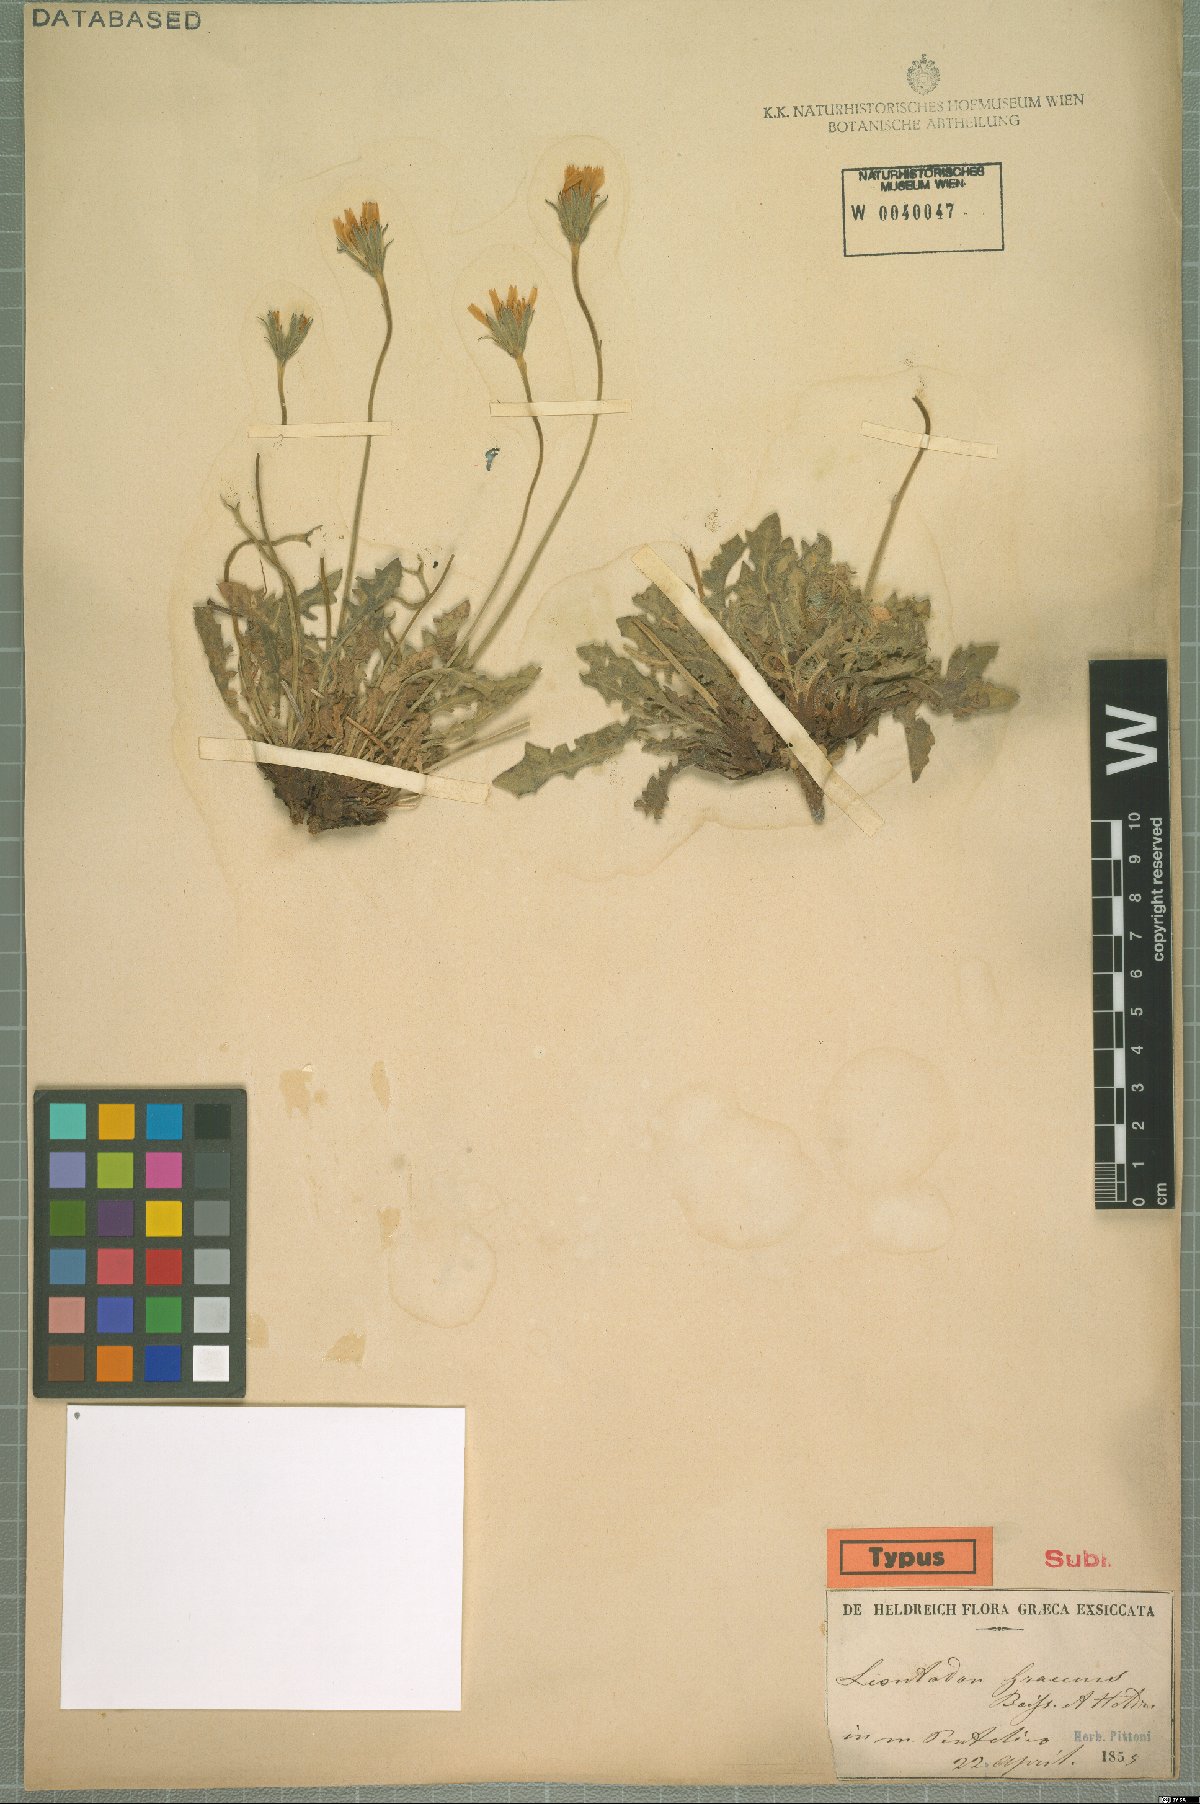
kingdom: Plantae
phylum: Tracheophyta
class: Magnoliopsida
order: Asterales
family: Asteraceae
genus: Leontodon
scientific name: Leontodon graecus
